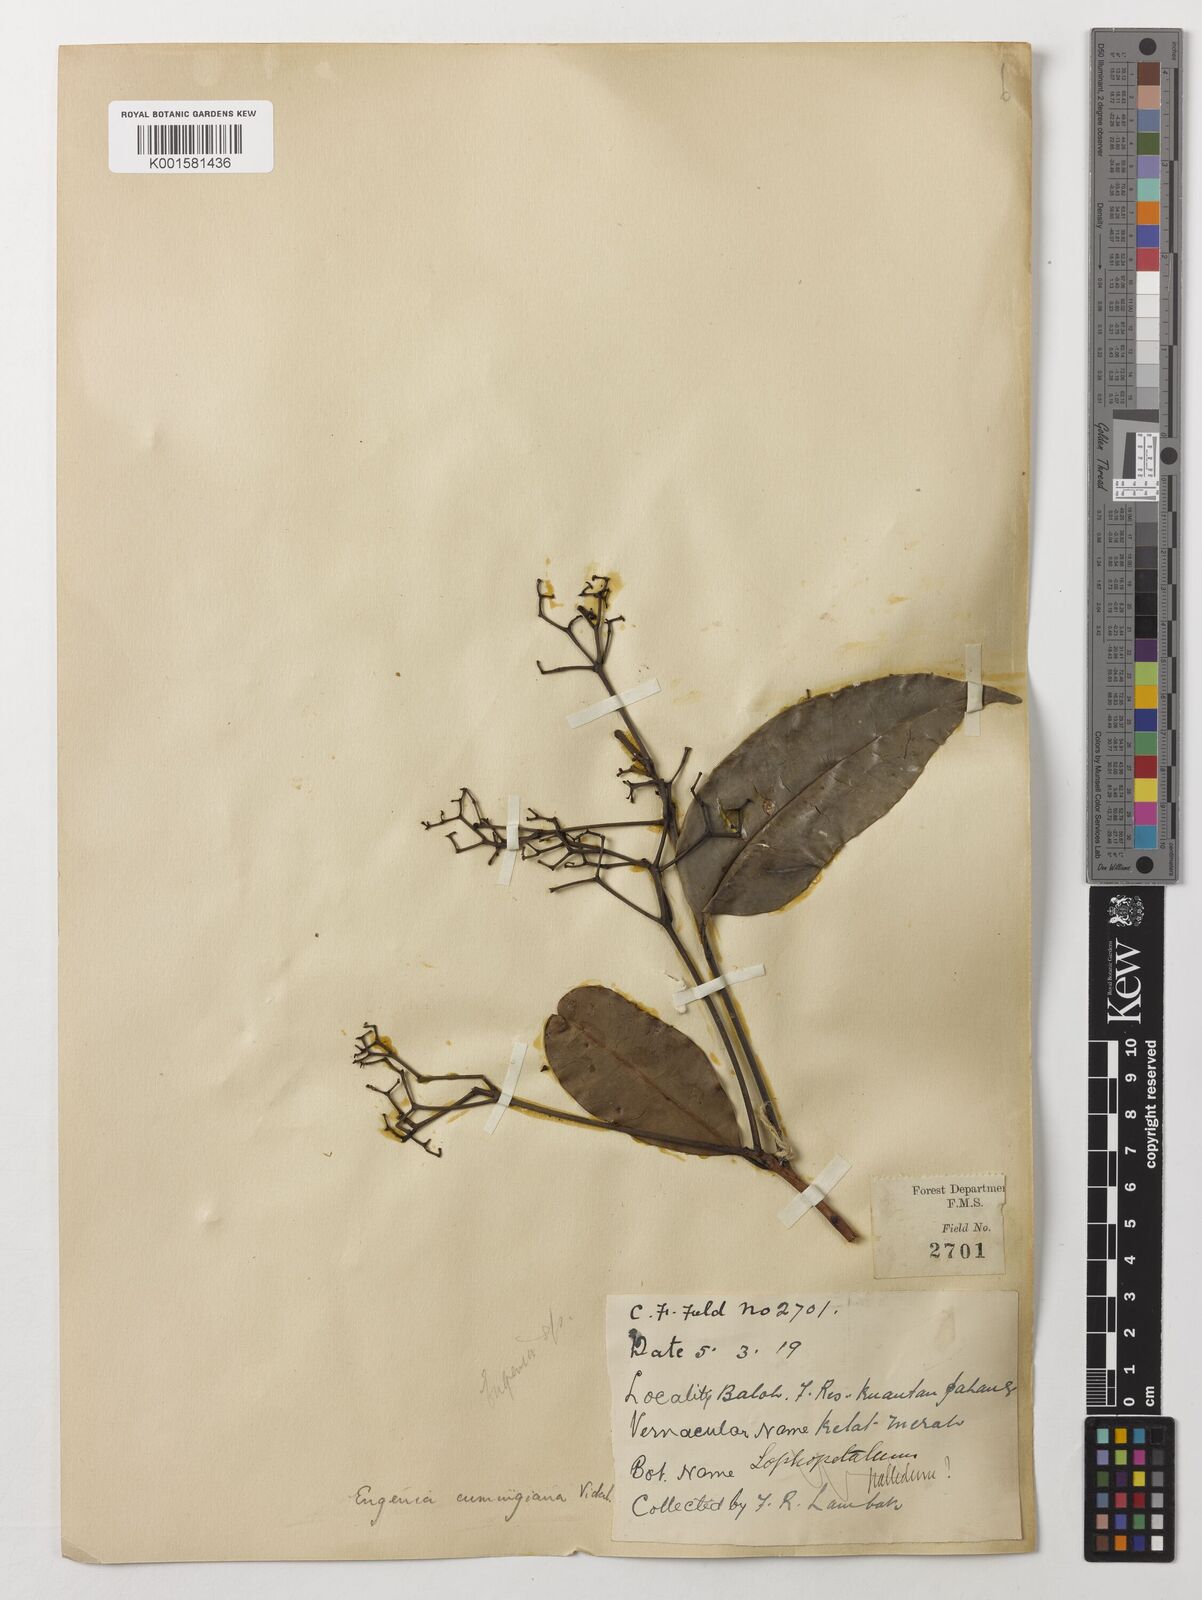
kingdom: Plantae
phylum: Tracheophyta
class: Magnoliopsida
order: Myrtales
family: Myrtaceae
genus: Syzygium
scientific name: Syzygium acuminatissimum
